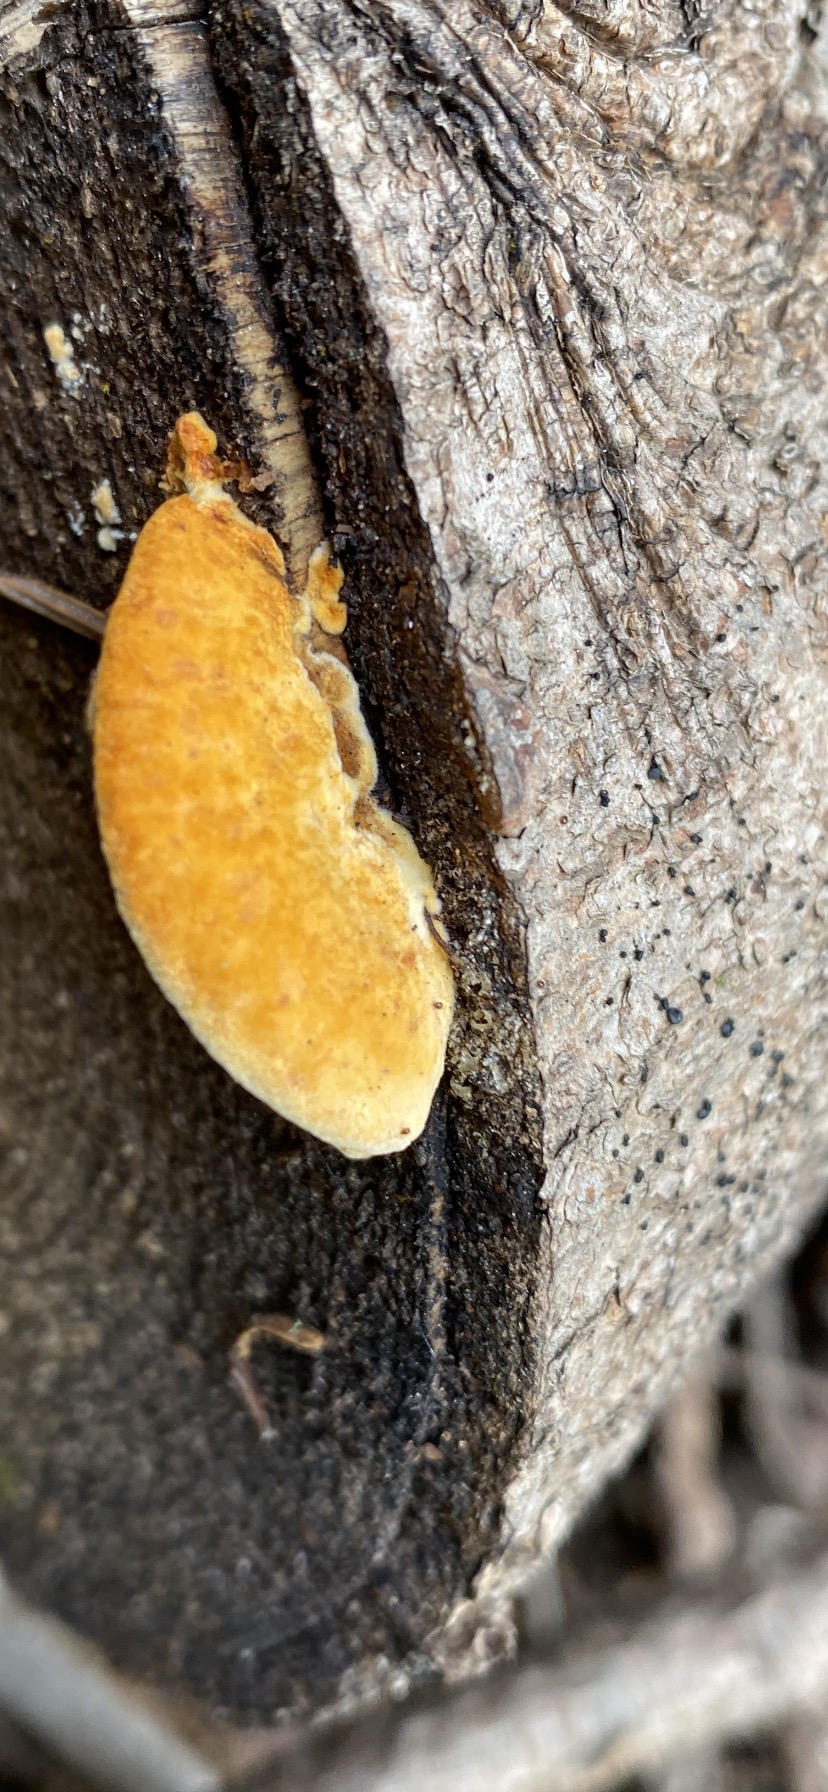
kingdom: Fungi
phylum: Basidiomycota
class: Agaricomycetes
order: Gloeophyllales
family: Gloeophyllaceae
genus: Gloeophyllum
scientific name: Gloeophyllum sepiarium
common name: fyrre-korkhat
